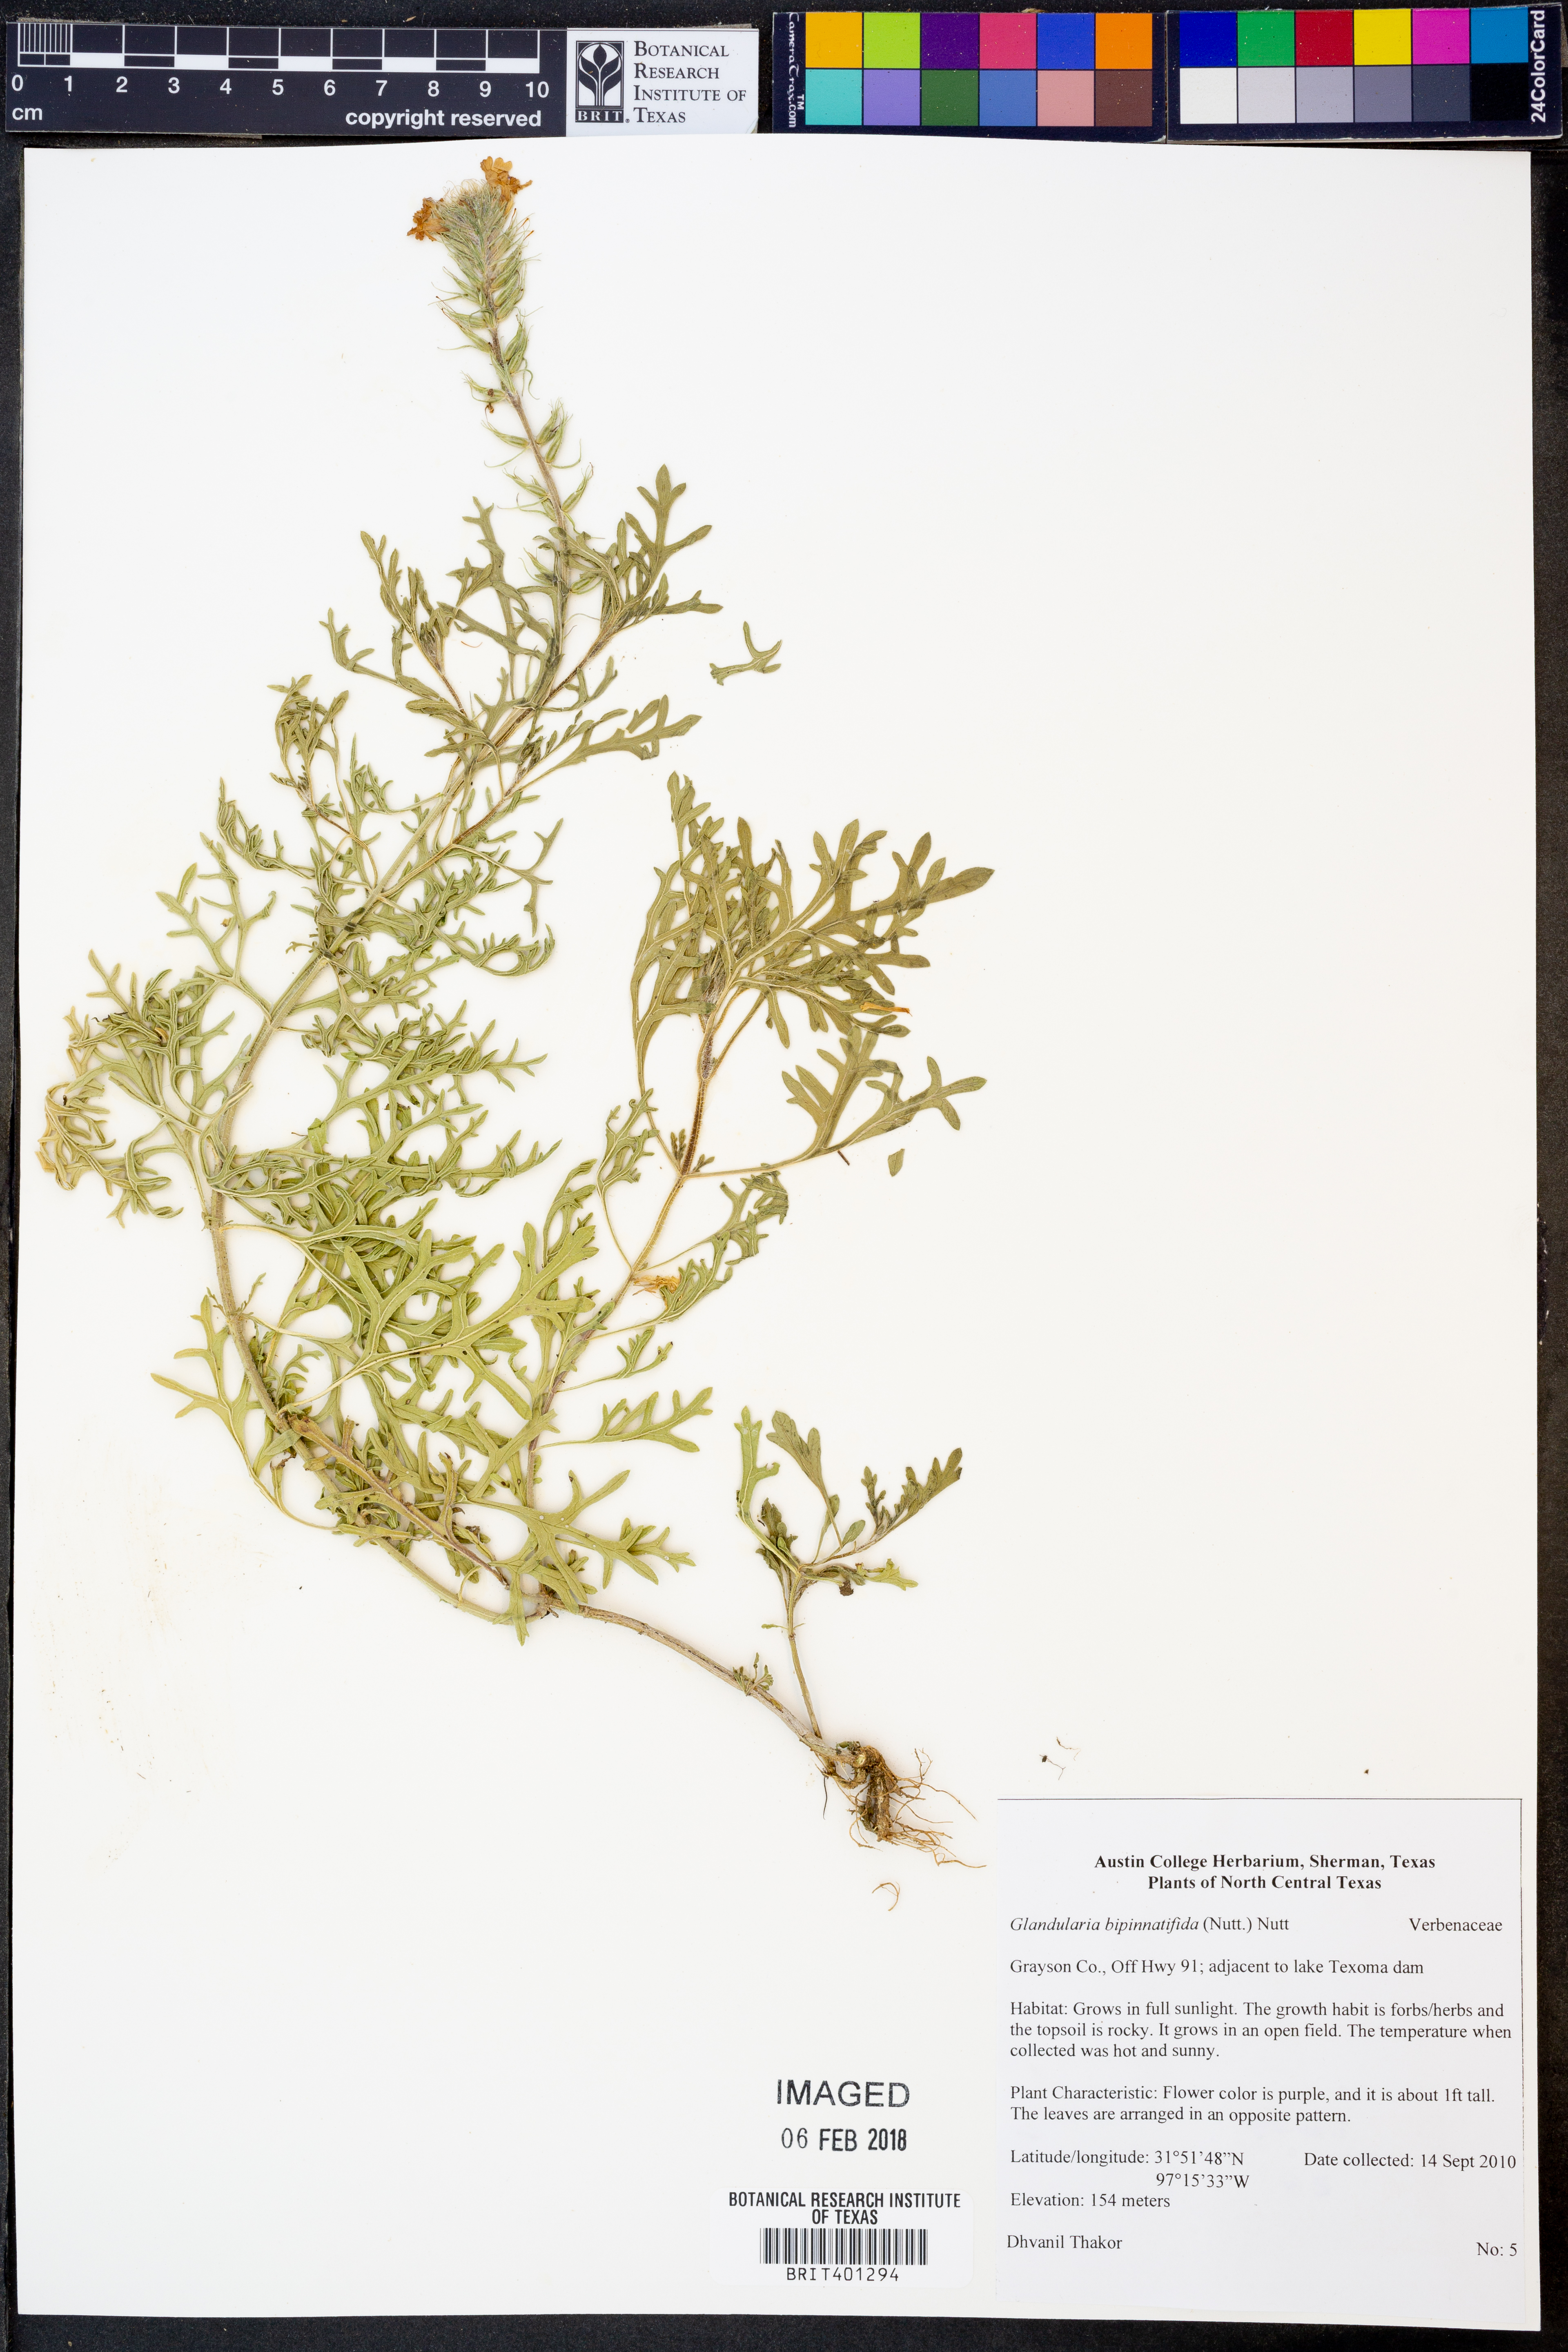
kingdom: Plantae
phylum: Tracheophyta
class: Magnoliopsida
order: Lamiales
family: Verbenaceae
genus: Verbena
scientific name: Verbena bipinnatifida
